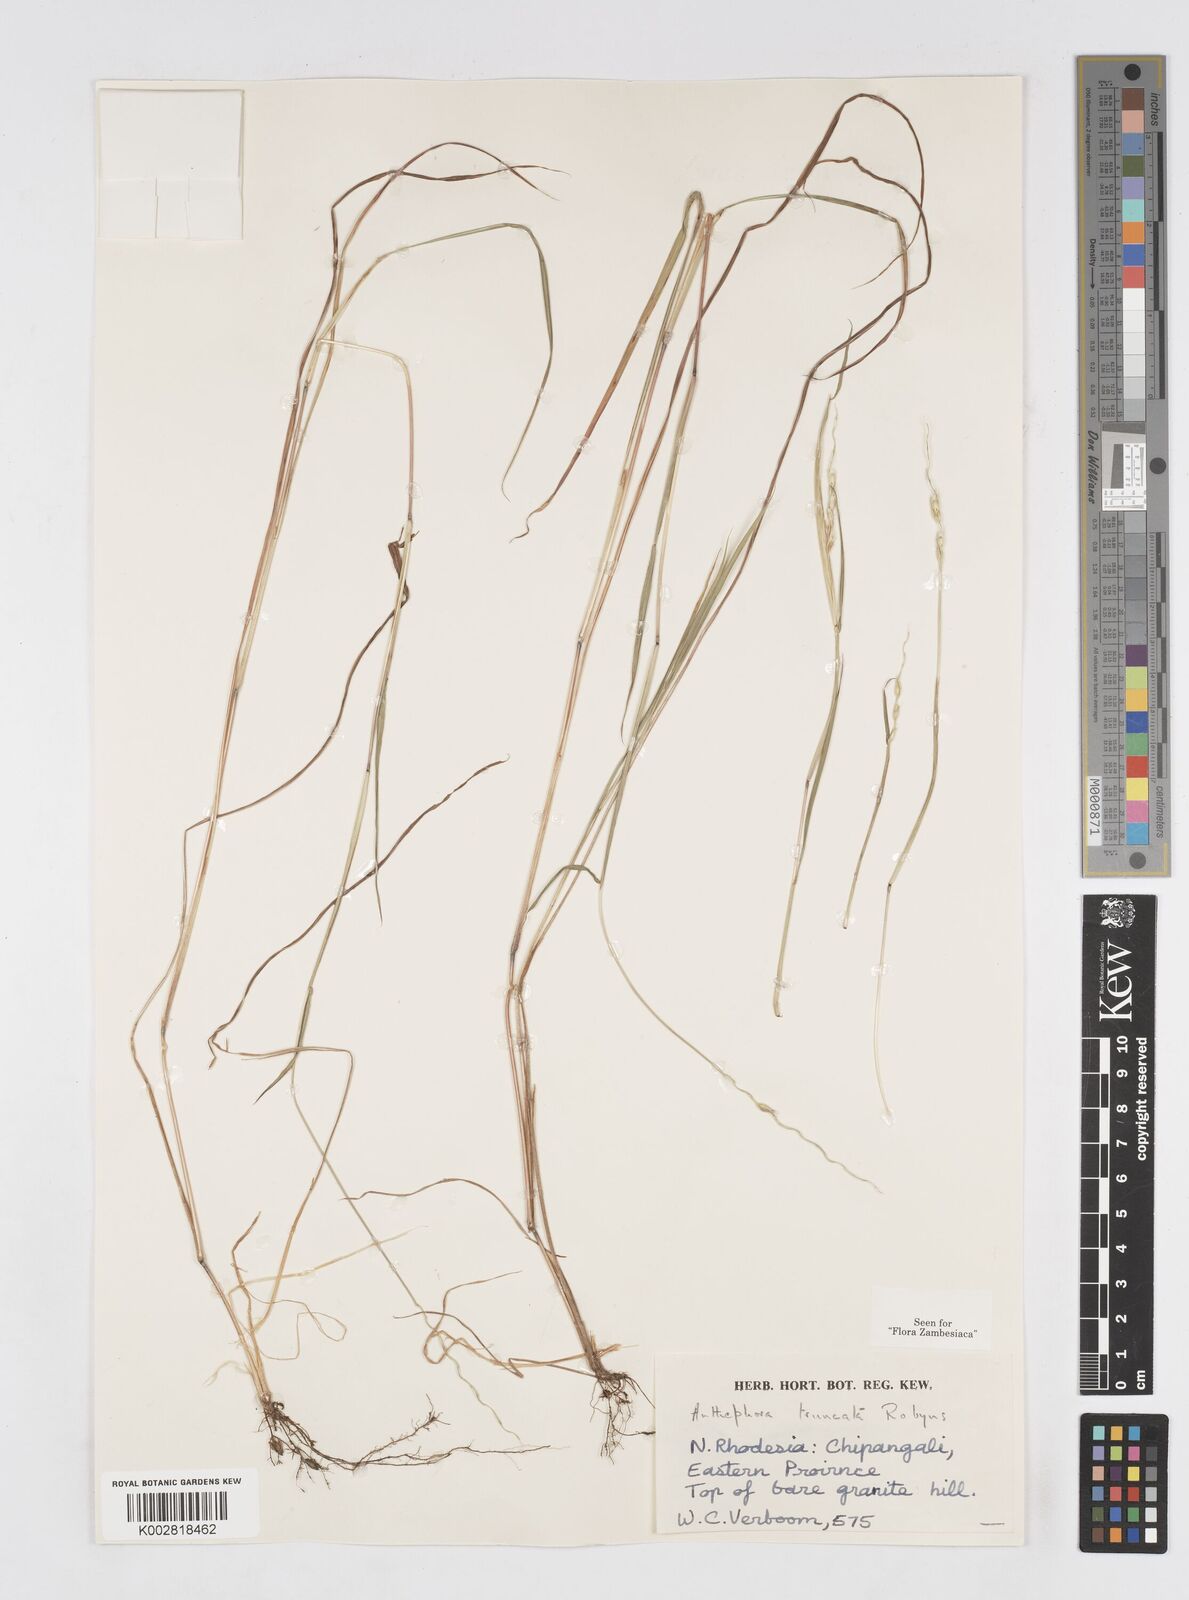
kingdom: Plantae
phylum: Tracheophyta
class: Liliopsida
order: Poales
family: Poaceae
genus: Anthephora
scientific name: Anthephora truncata
